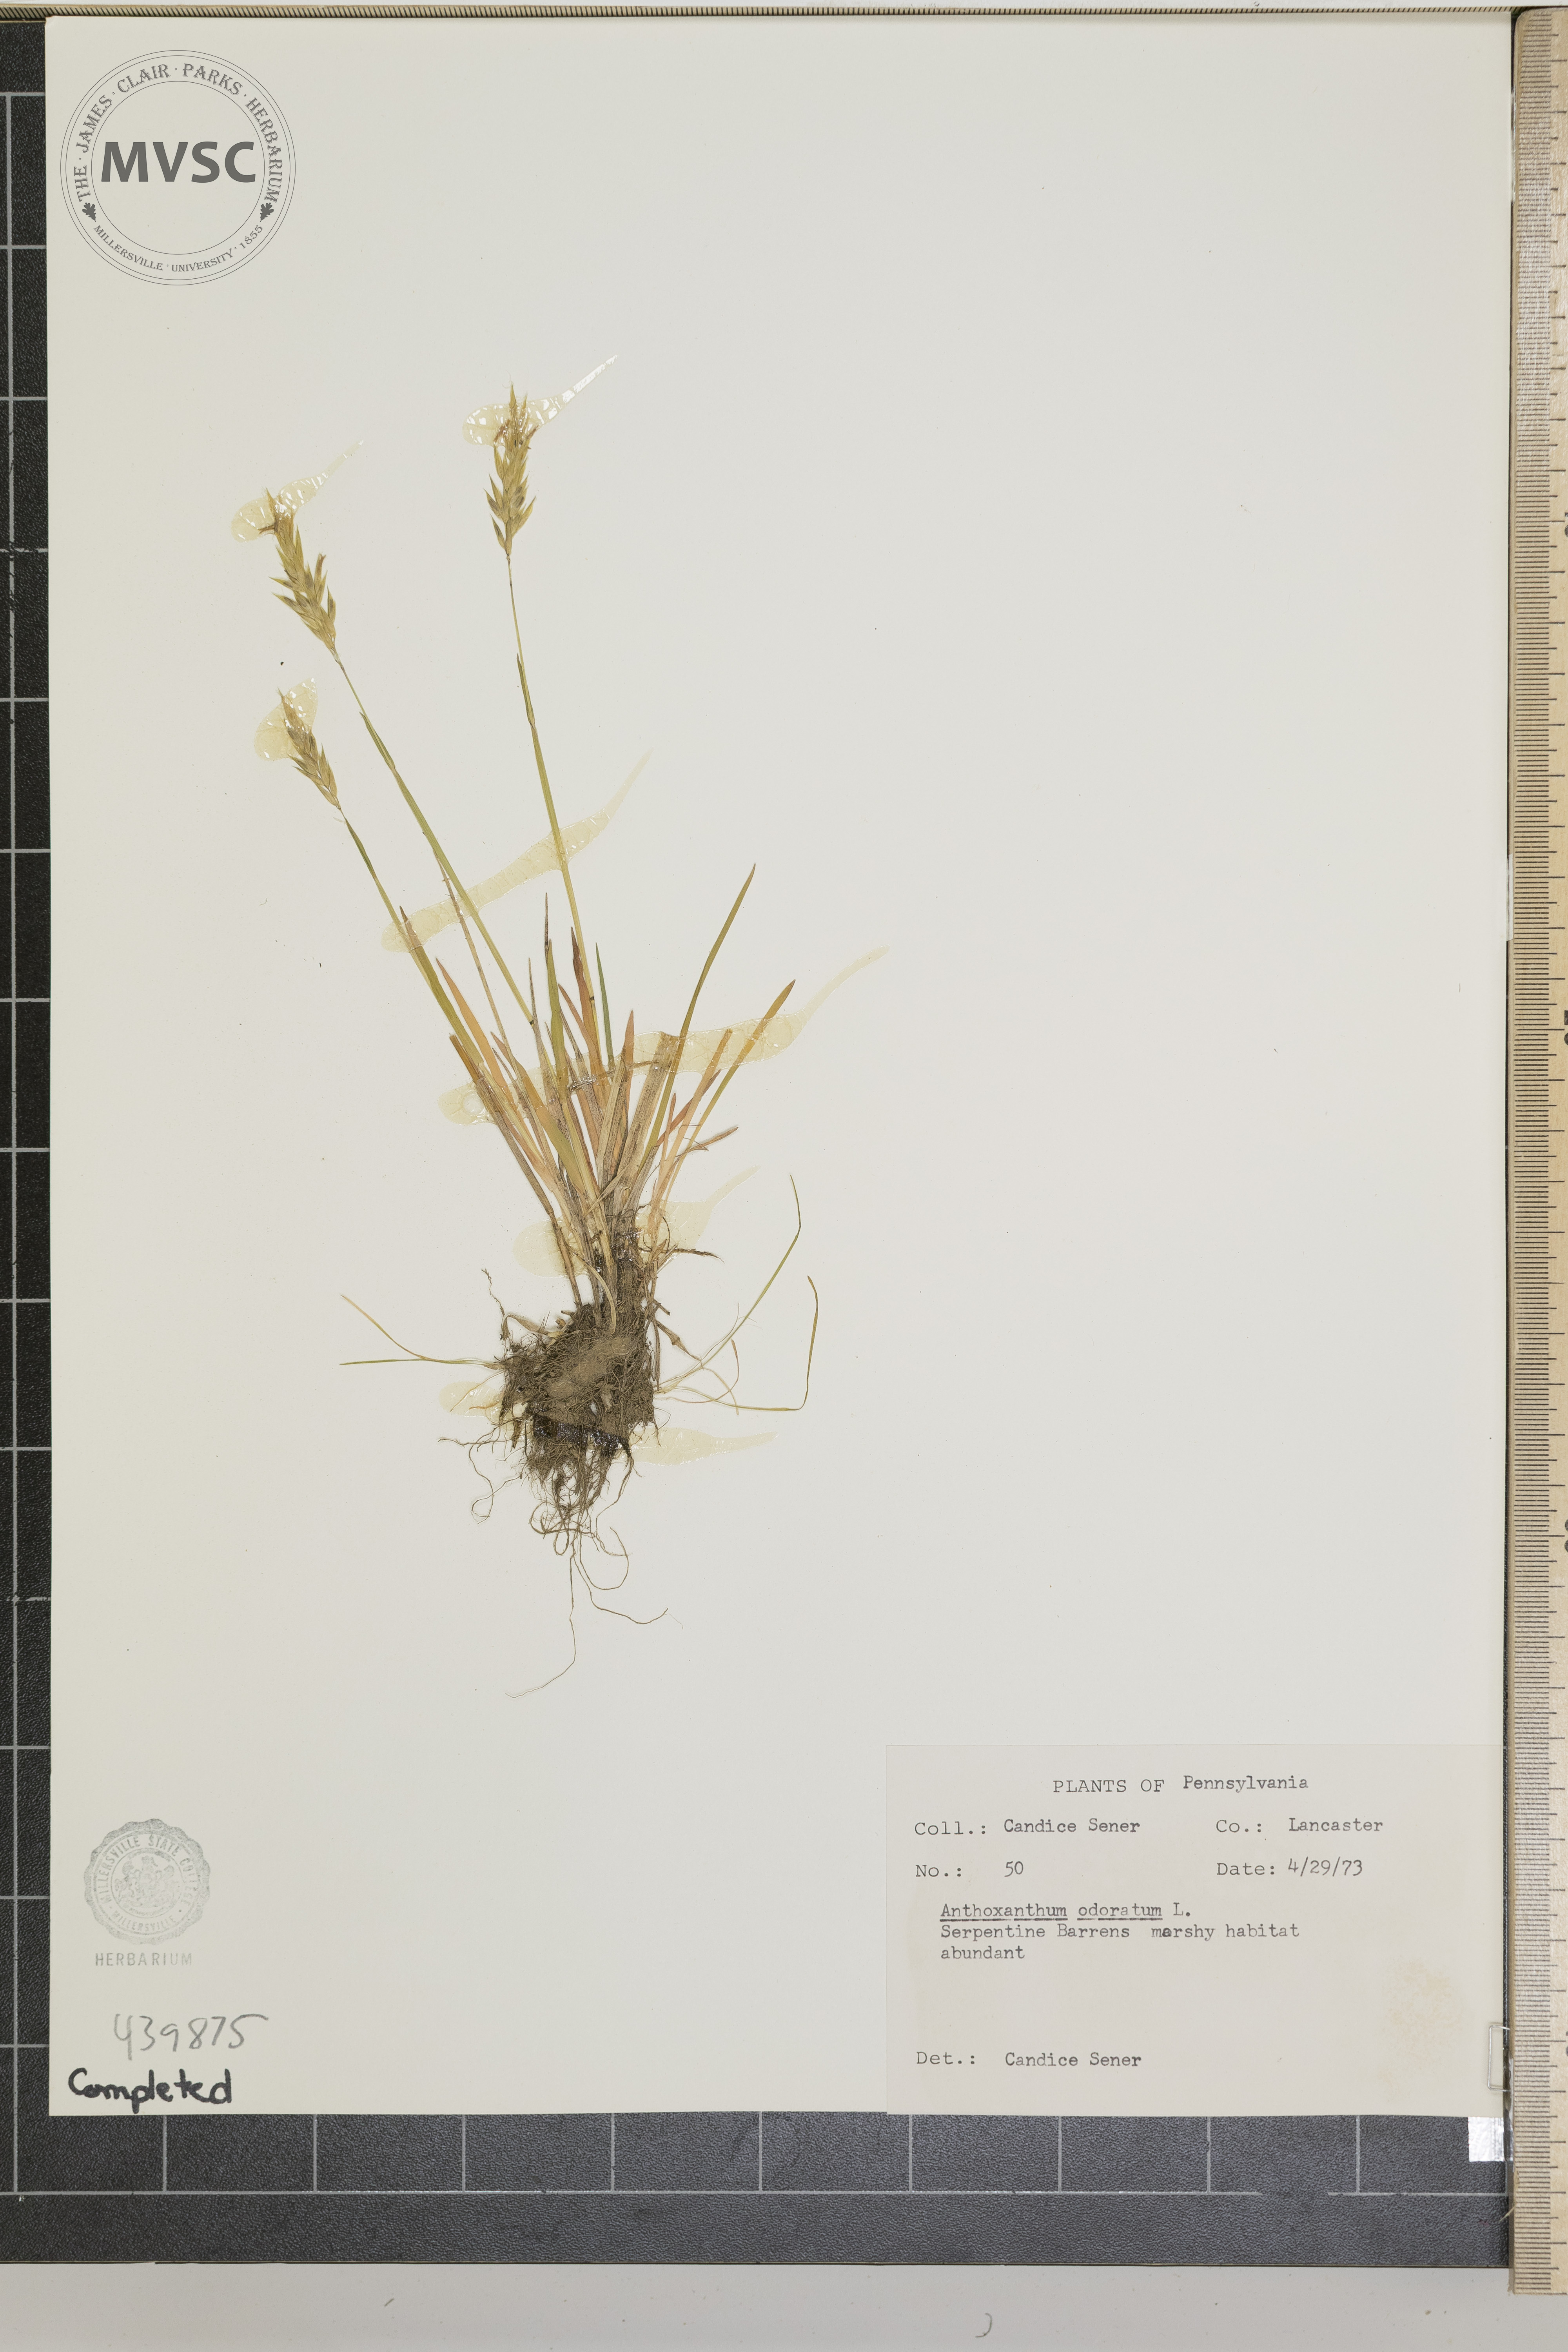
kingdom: Plantae
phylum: Tracheophyta
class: Liliopsida
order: Poales
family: Poaceae
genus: Anthoxanthum
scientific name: Anthoxanthum odoratum
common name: Sweet vernalgrass
